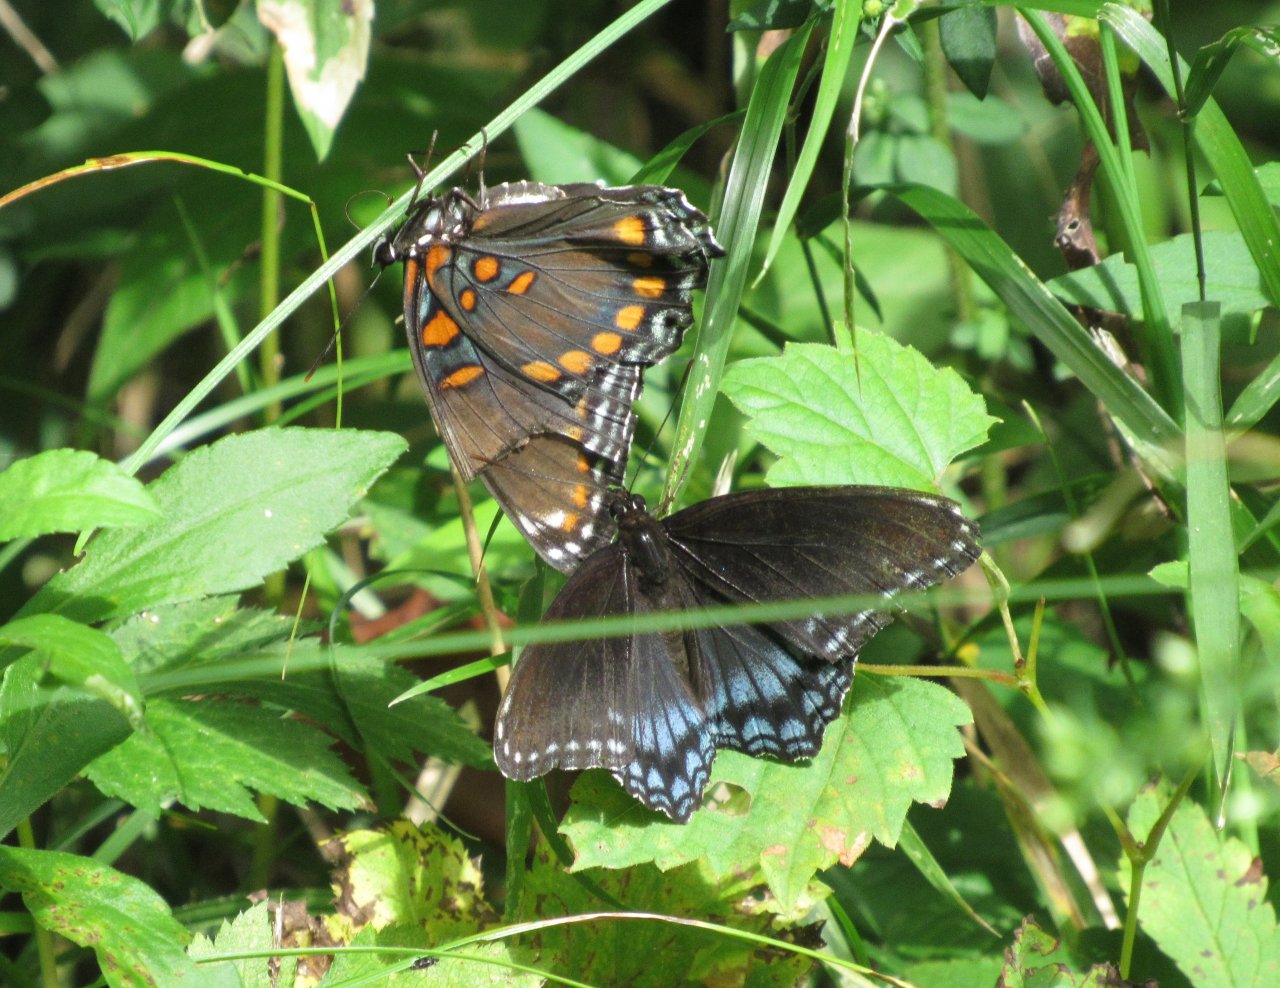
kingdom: Animalia
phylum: Arthropoda
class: Insecta
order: Lepidoptera
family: Nymphalidae
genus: Limenitis
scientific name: Limenitis astyanax
